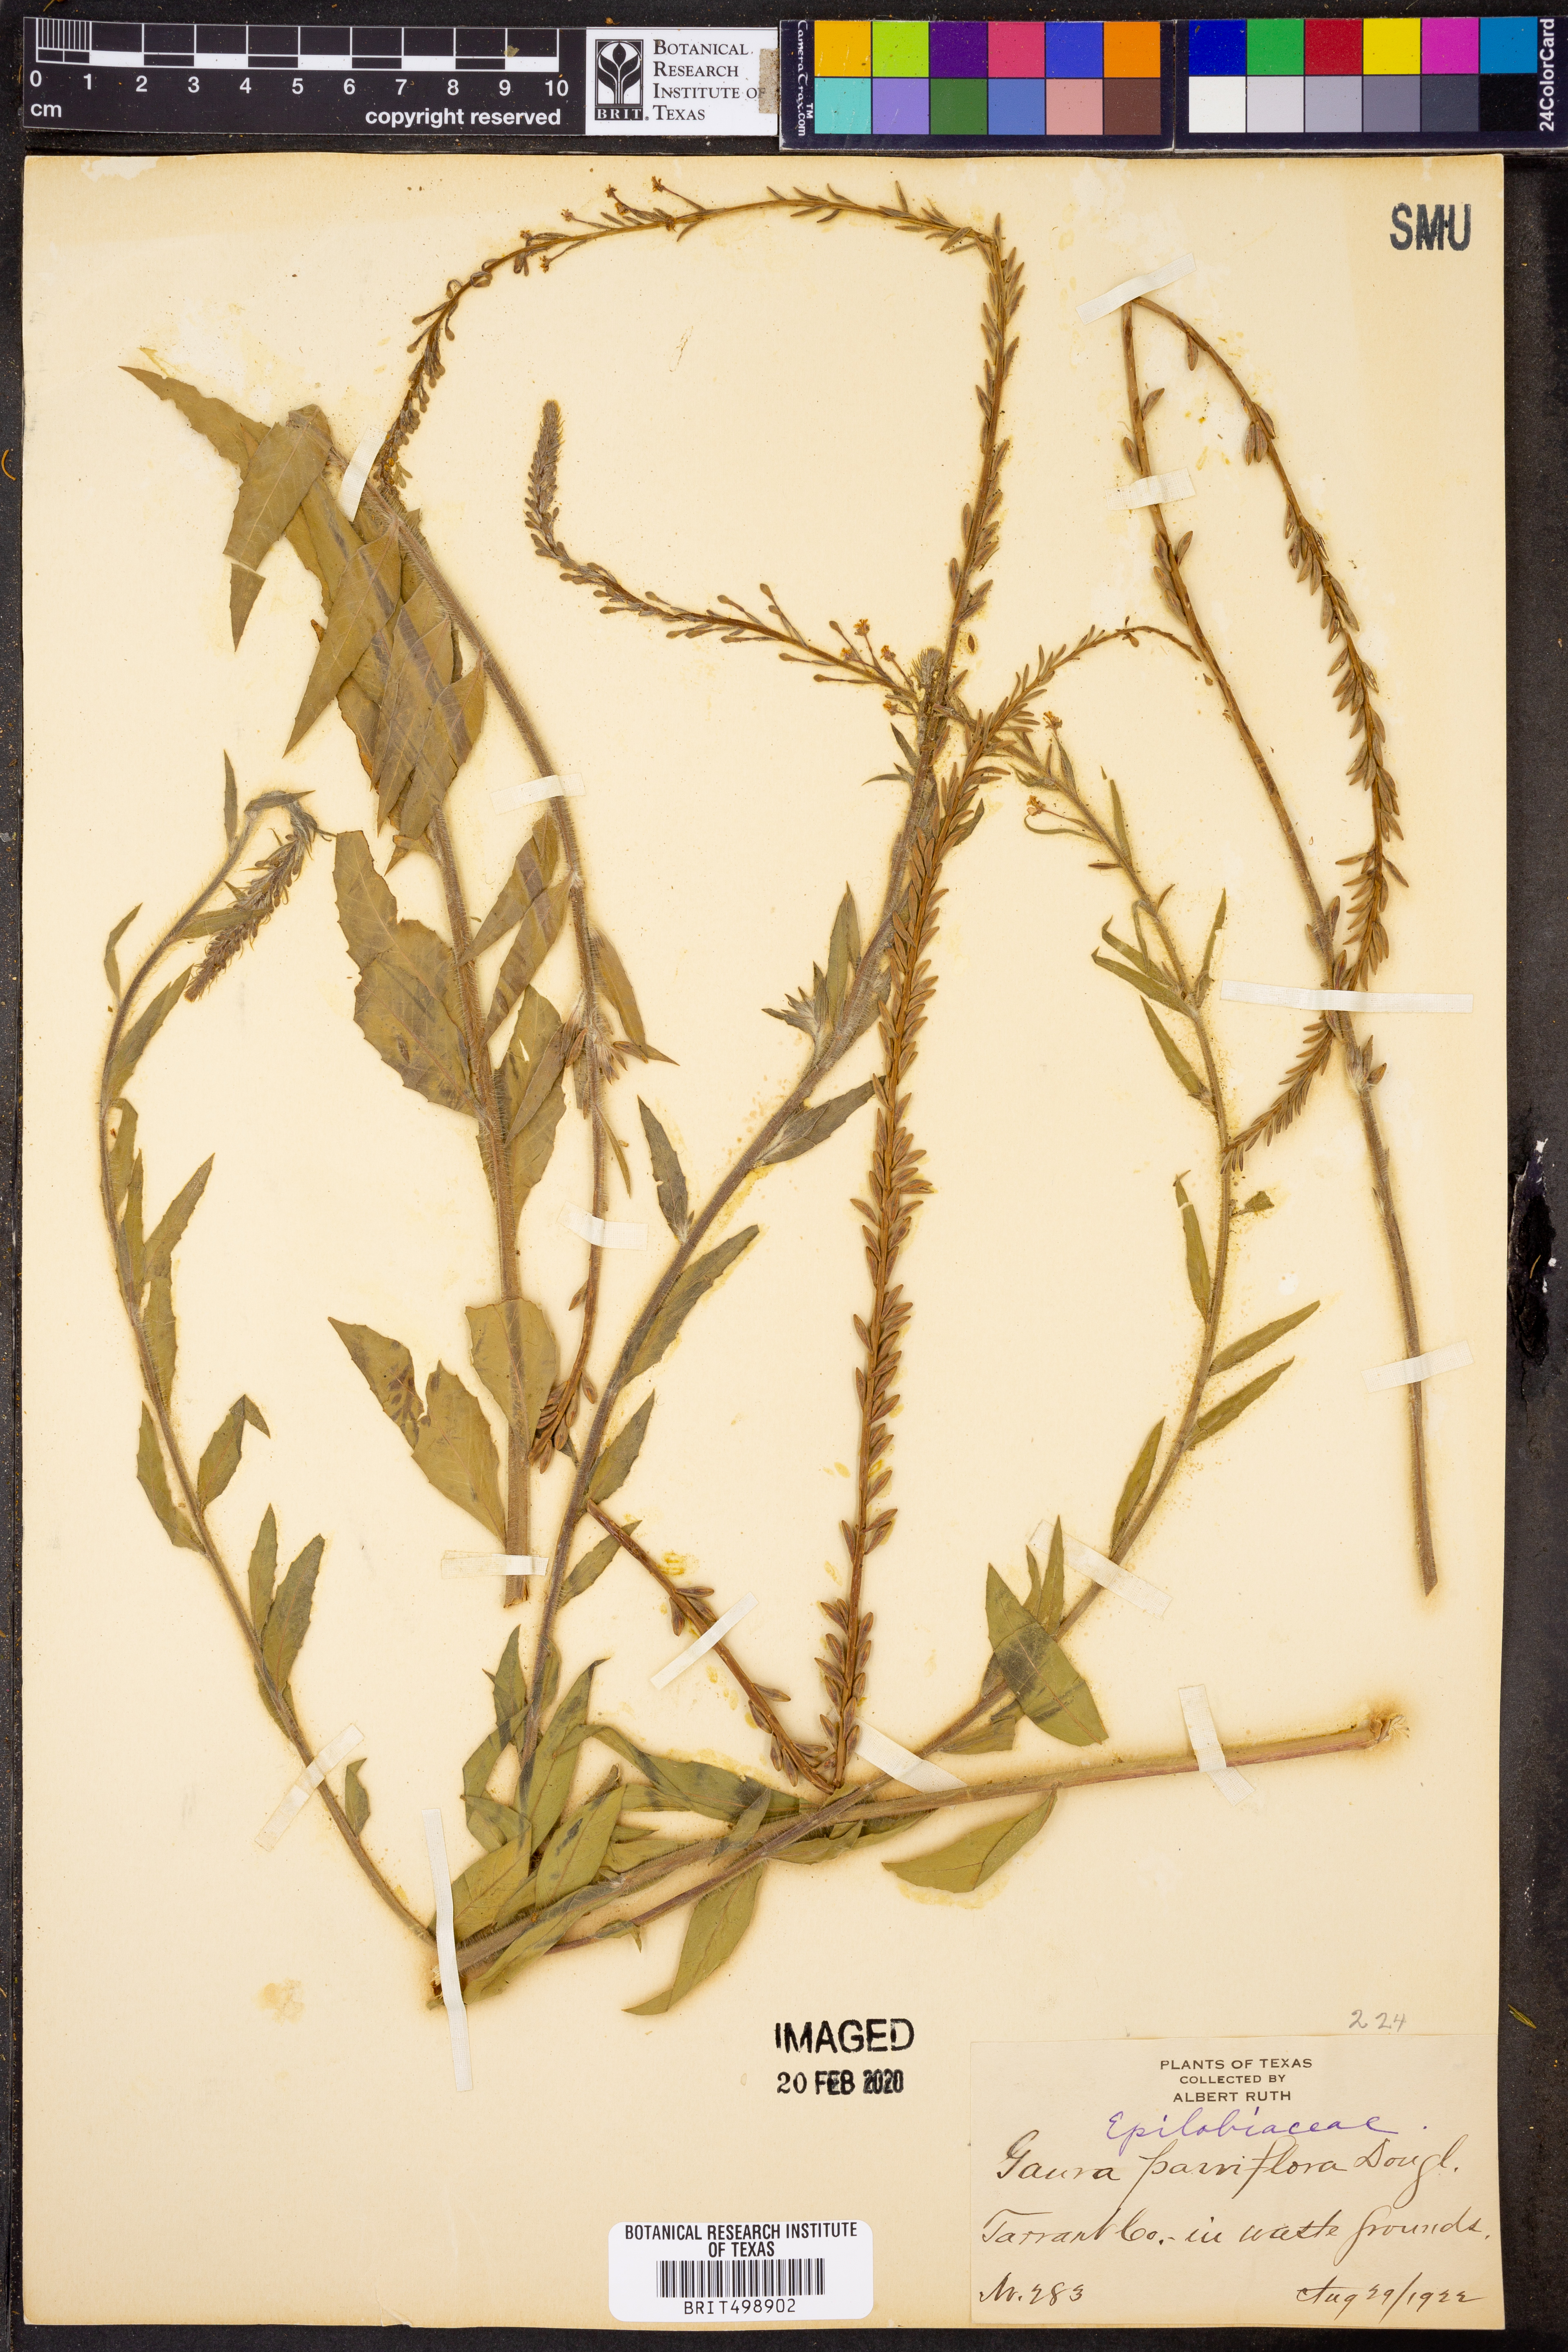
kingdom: Plantae
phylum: Tracheophyta
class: Magnoliopsida
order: Myrtales
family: Onagraceae
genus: Oenothera
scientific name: Oenothera curtiflora
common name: Velvetweed
